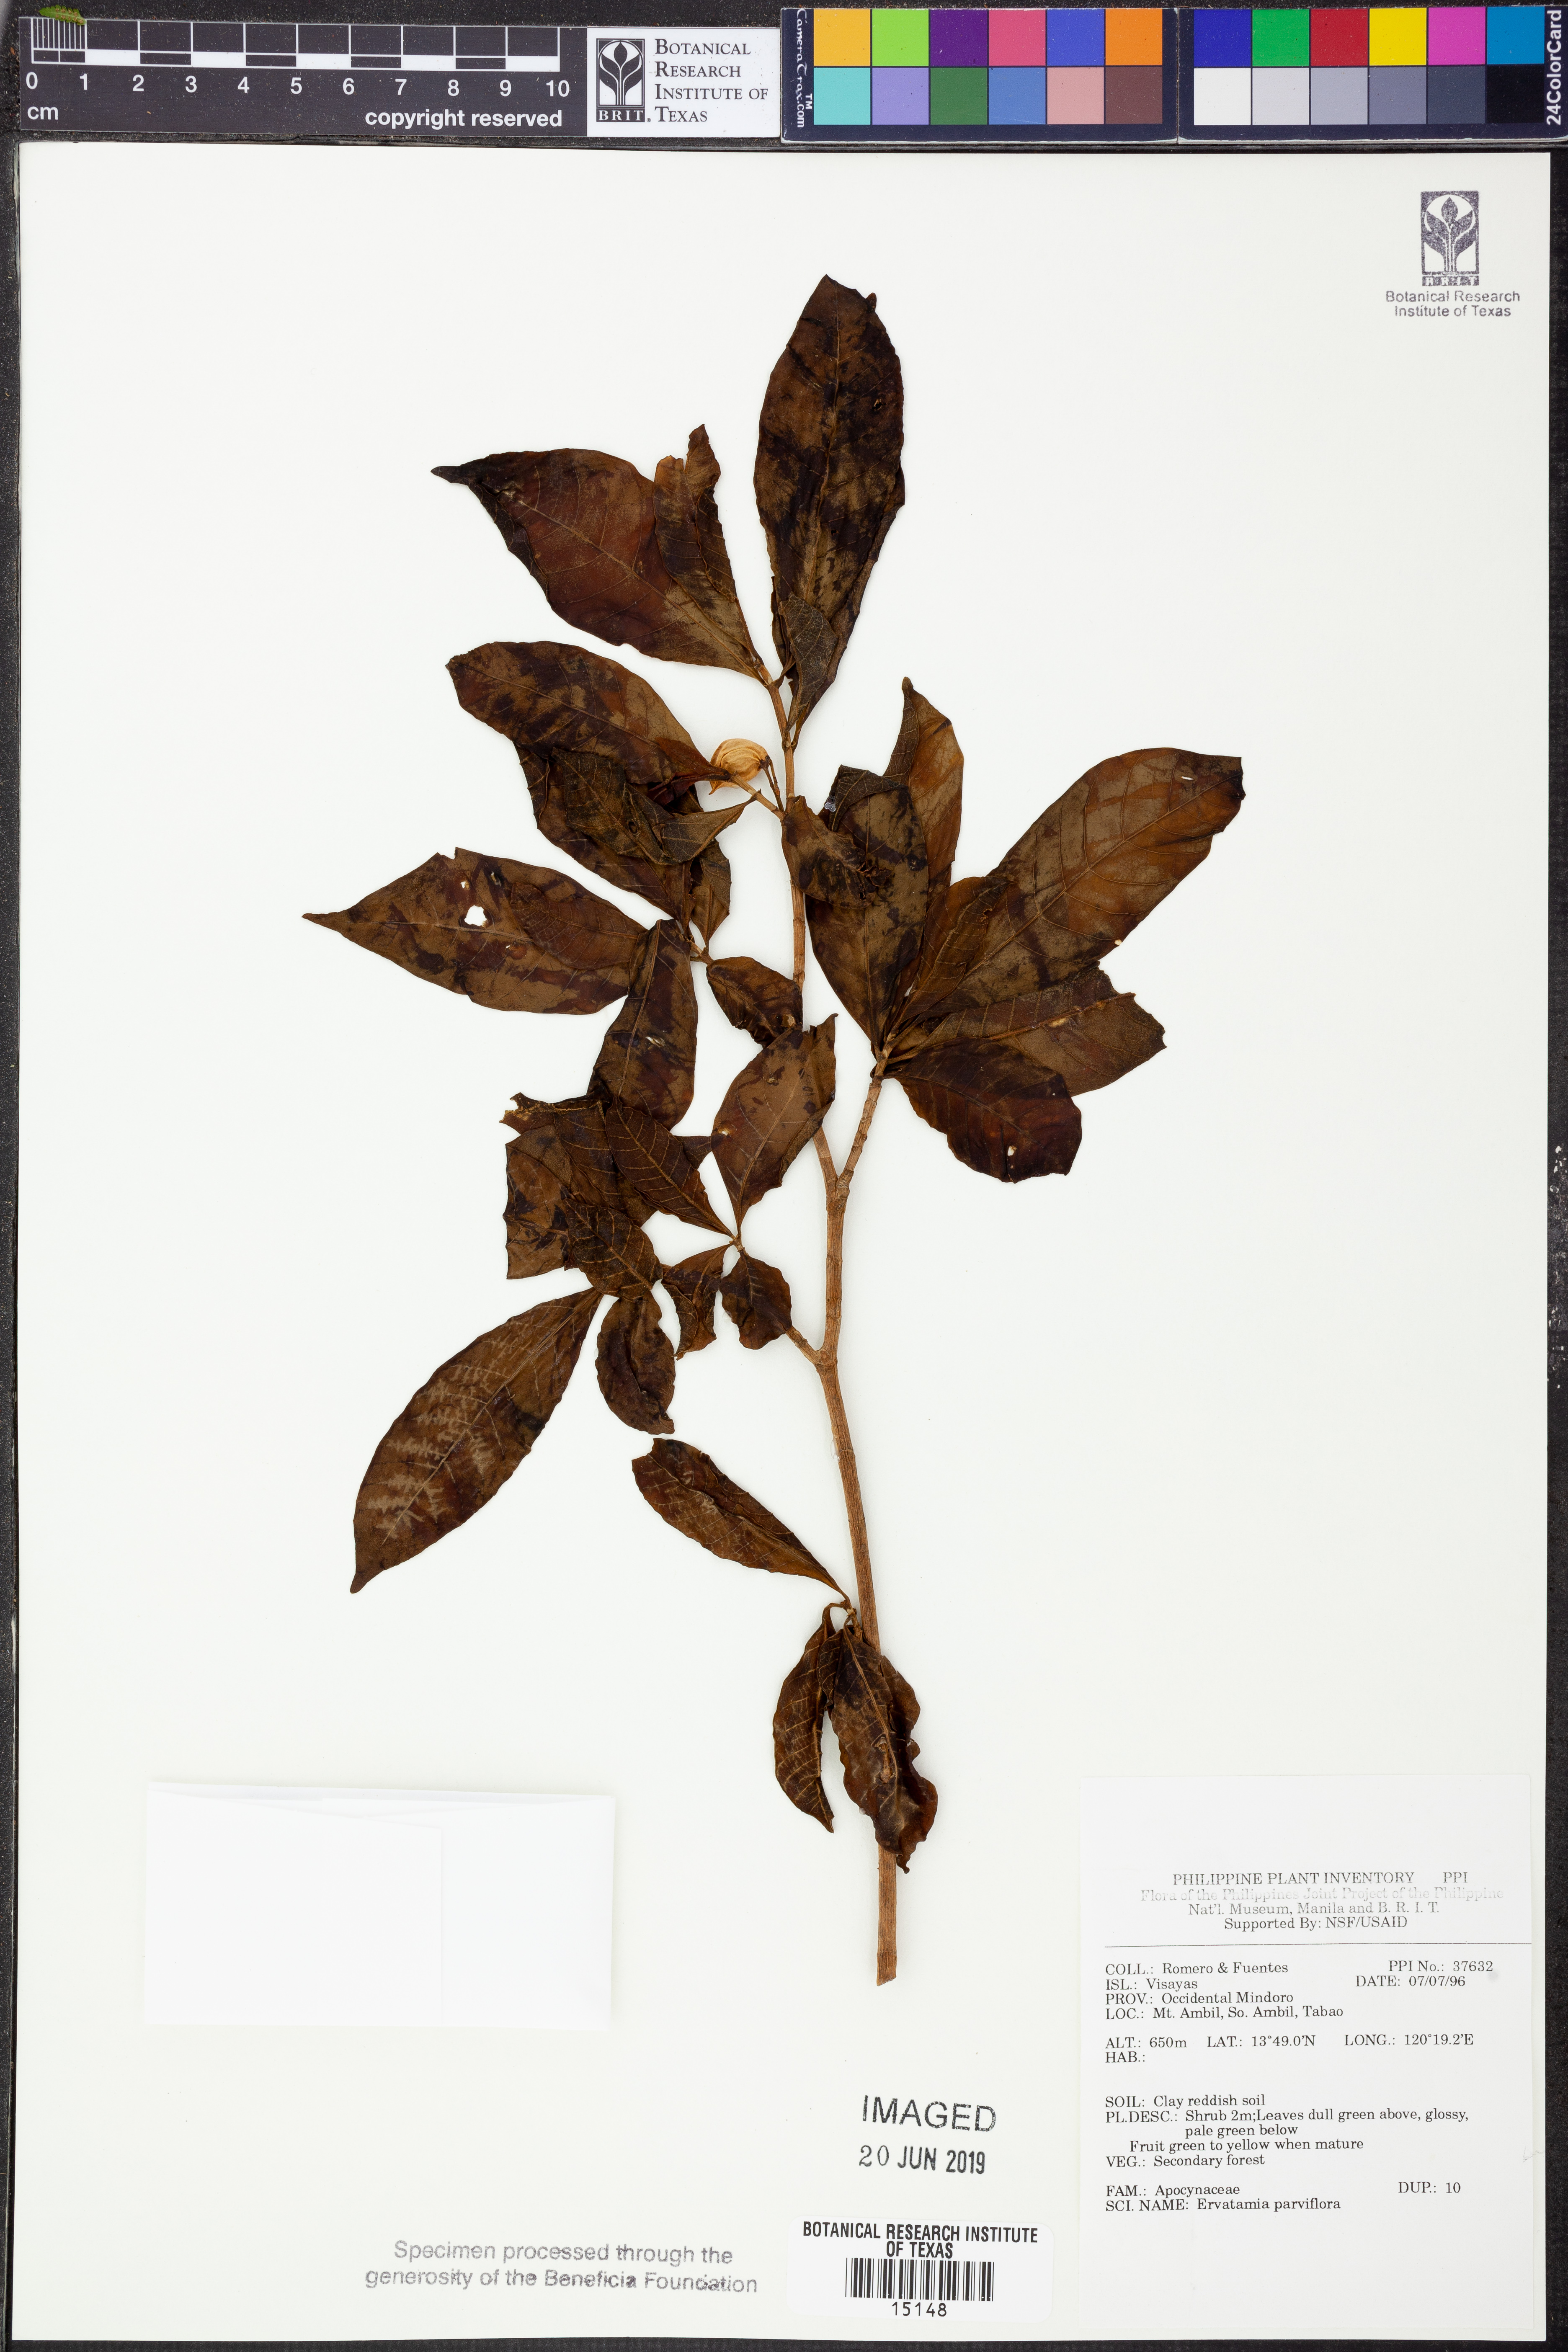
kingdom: Plantae
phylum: Tracheophyta
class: Magnoliopsida
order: Gentianales
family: Apocynaceae
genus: Tabernaemontana
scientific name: Tabernaemontana pandacaqui
